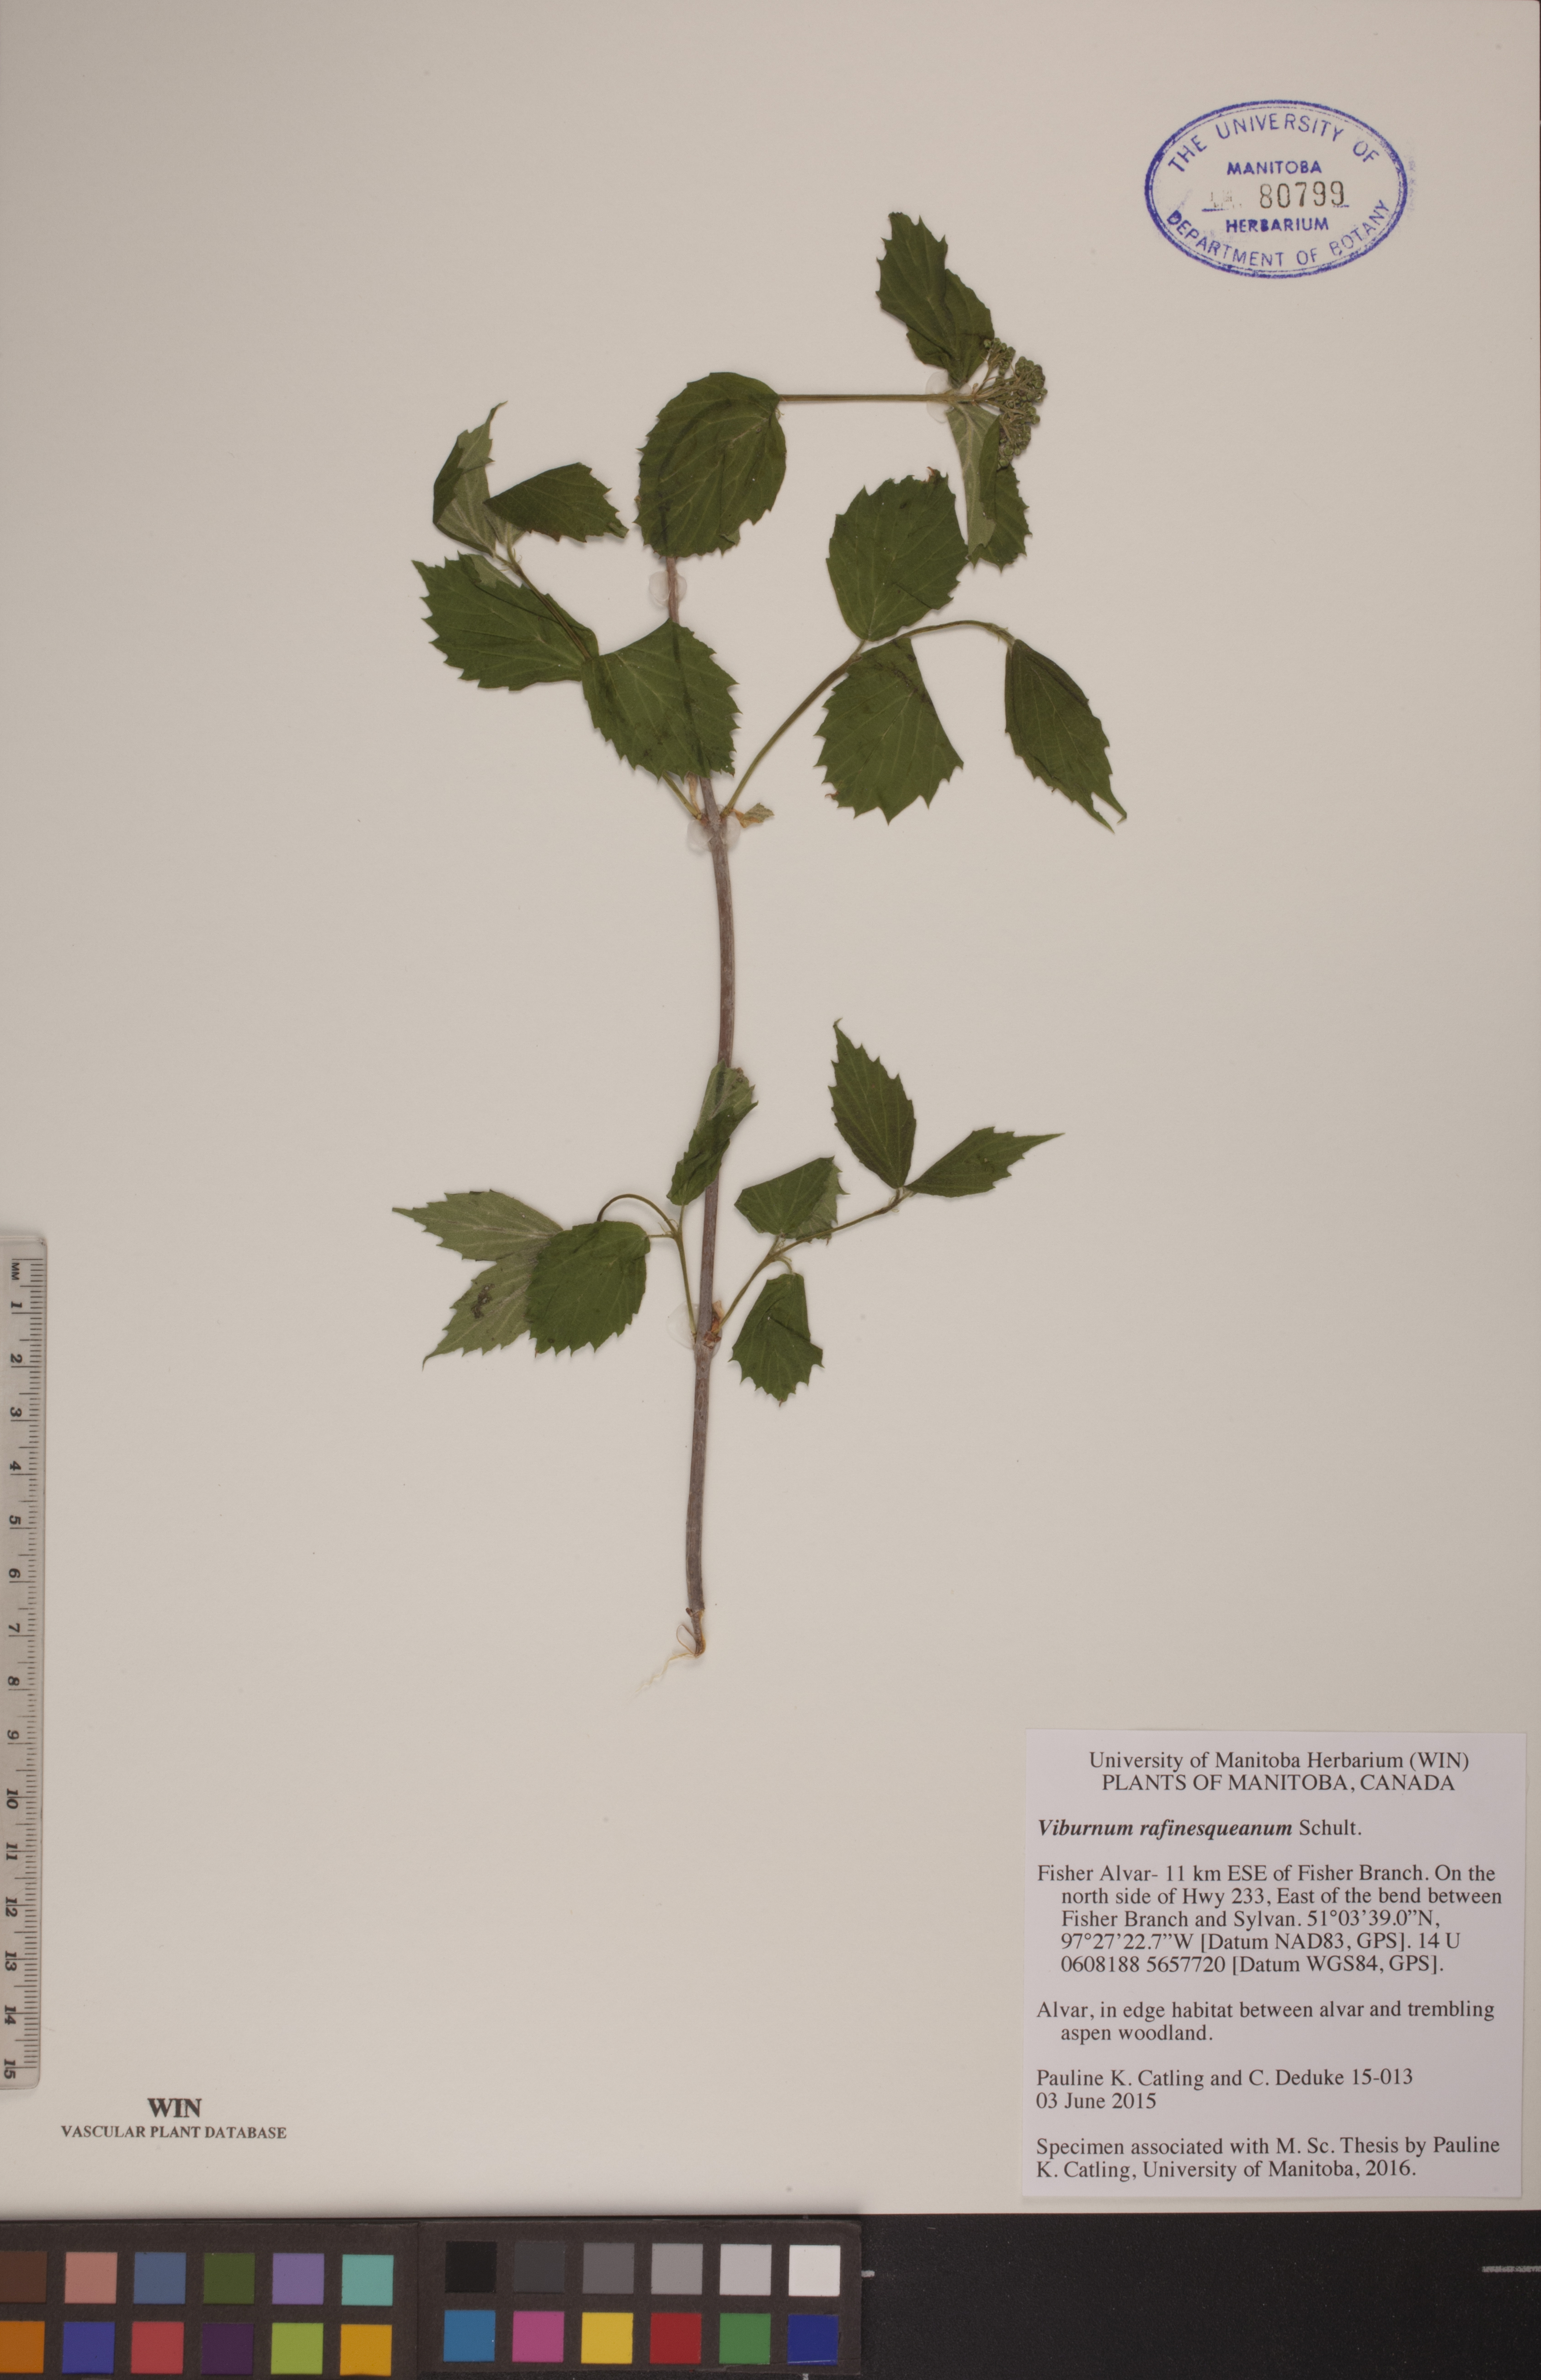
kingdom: Plantae
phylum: Tracheophyta
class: Magnoliopsida
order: Dipsacales
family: Viburnaceae
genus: Viburnum
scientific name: Viburnum rafinesquianum
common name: Downy arrow-wood
